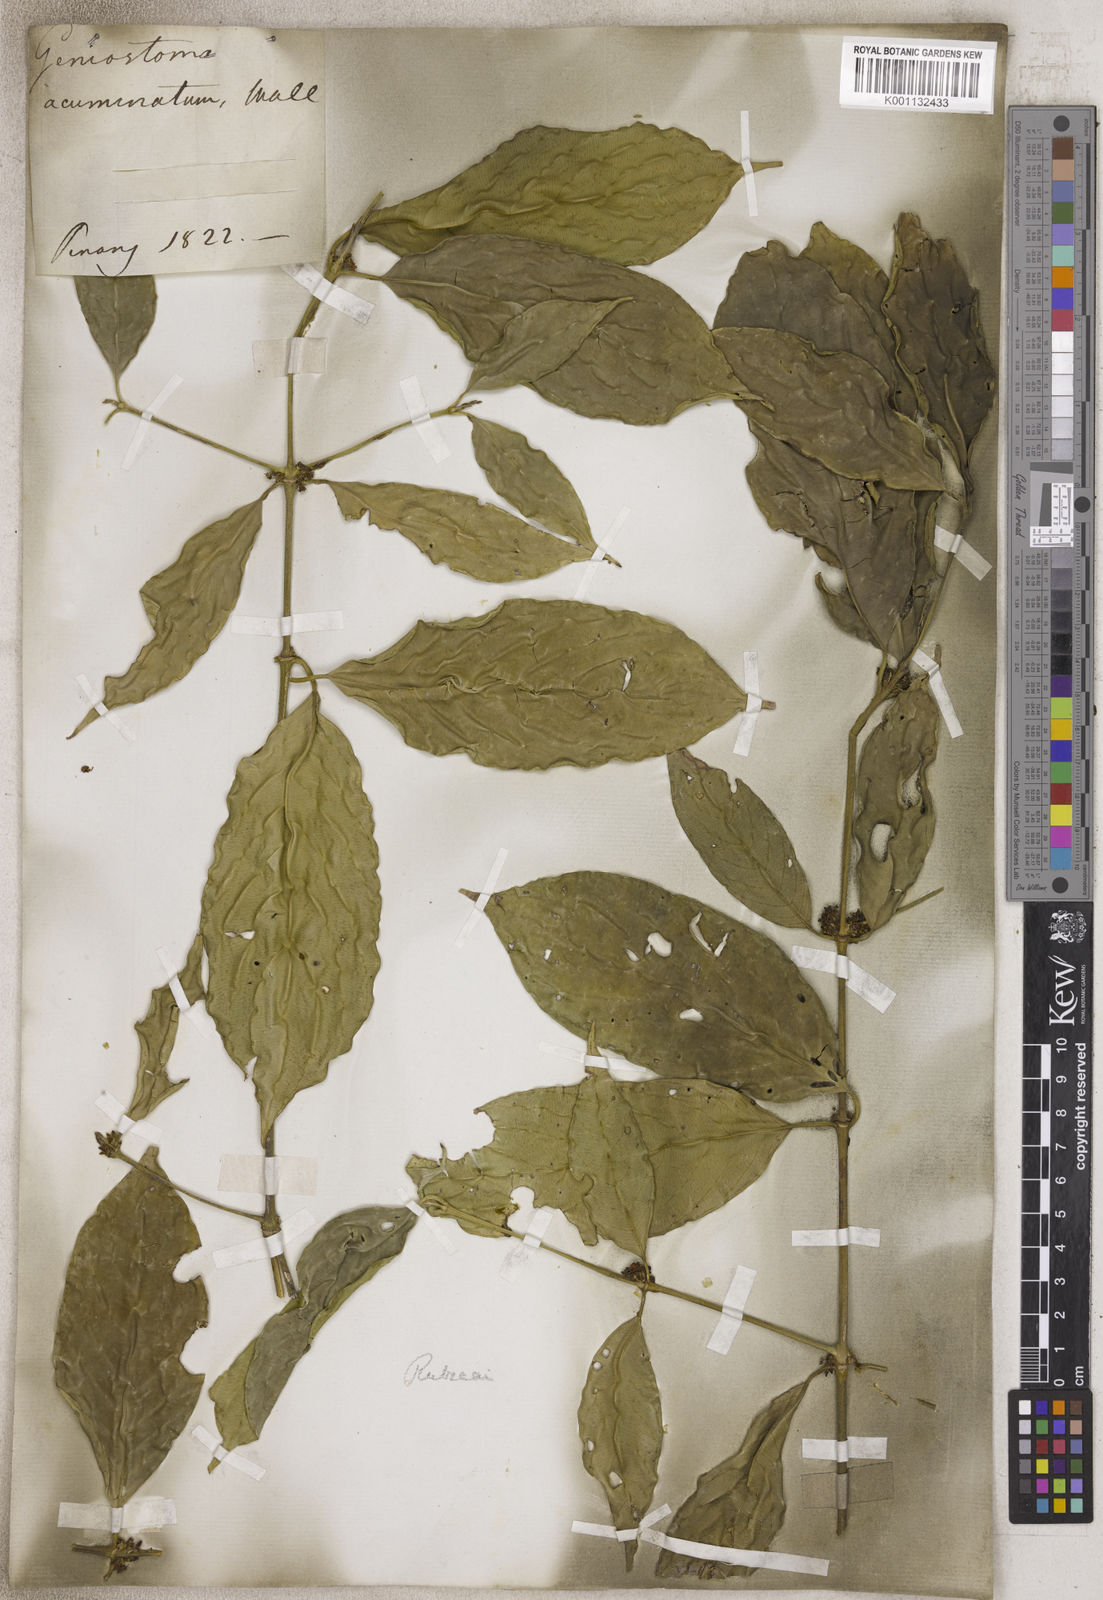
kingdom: Plantae
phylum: Tracheophyta
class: Magnoliopsida
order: Gentianales
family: Loganiaceae
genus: Geniostoma
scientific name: Geniostoma
